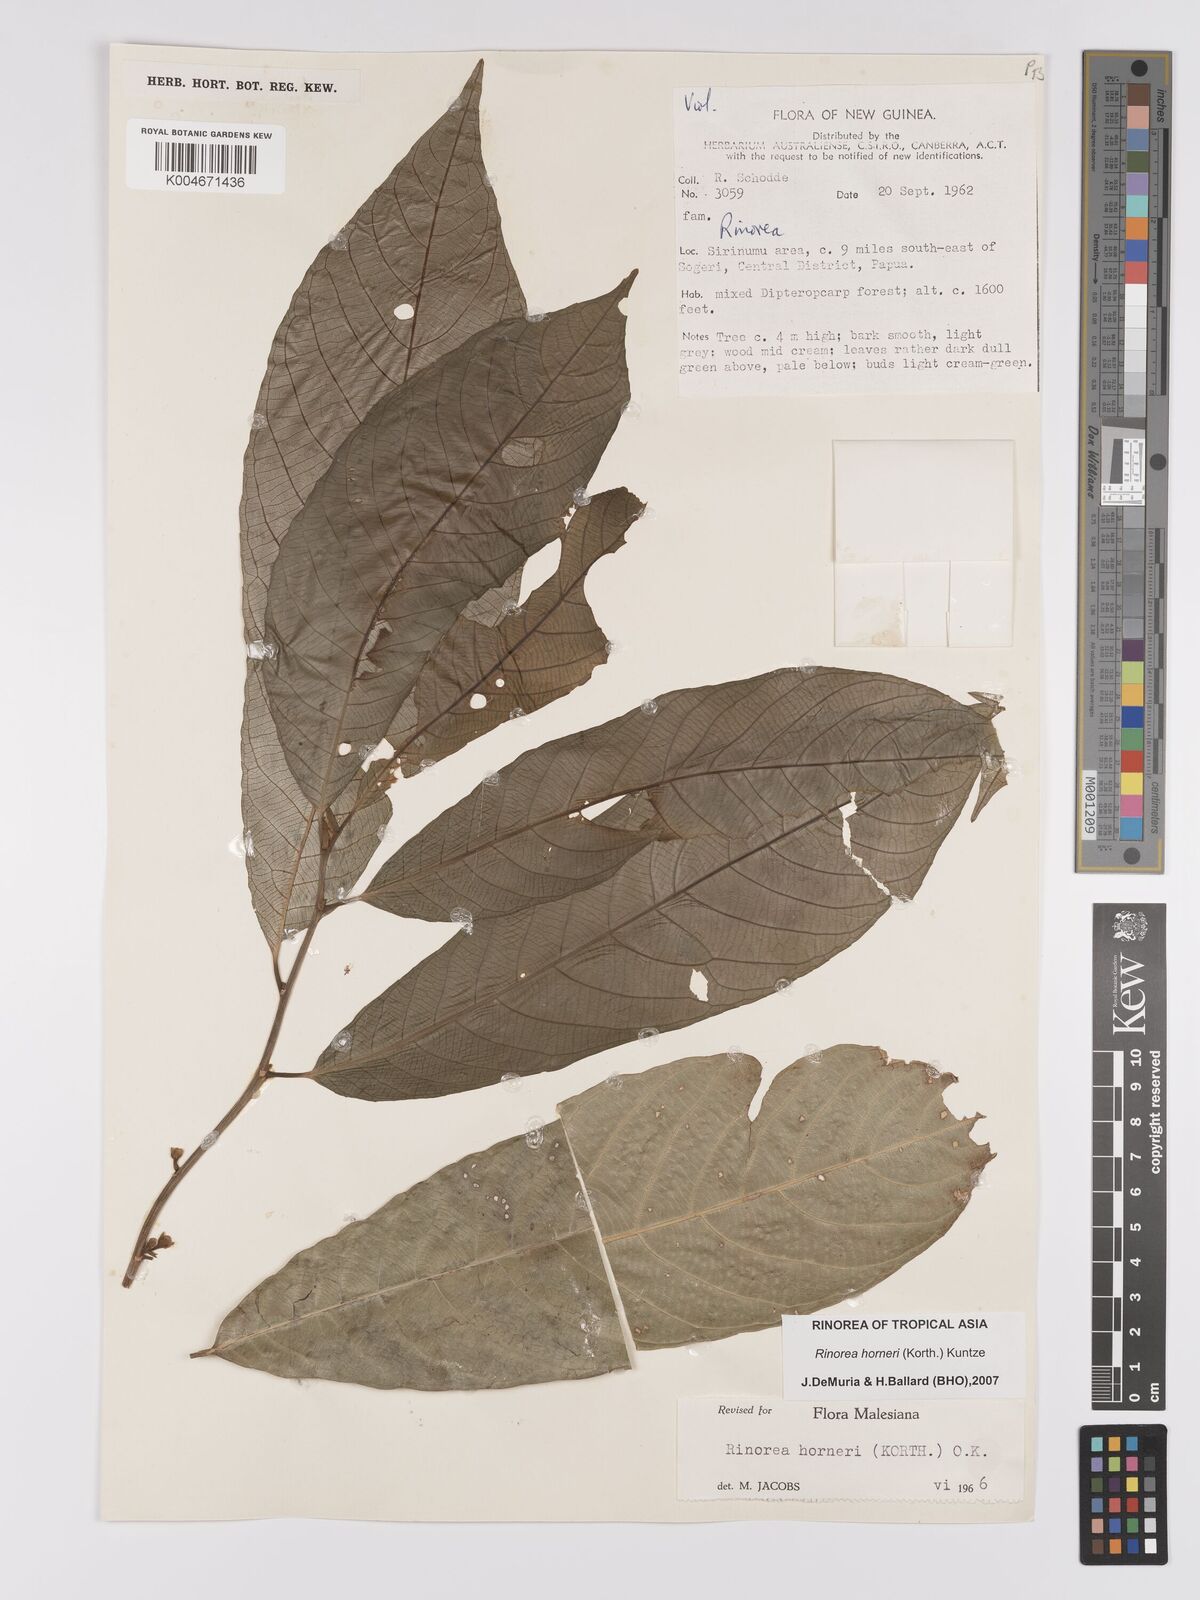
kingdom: Plantae
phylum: Tracheophyta
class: Magnoliopsida
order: Malpighiales
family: Violaceae
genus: Rinorea
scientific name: Rinorea horneri
